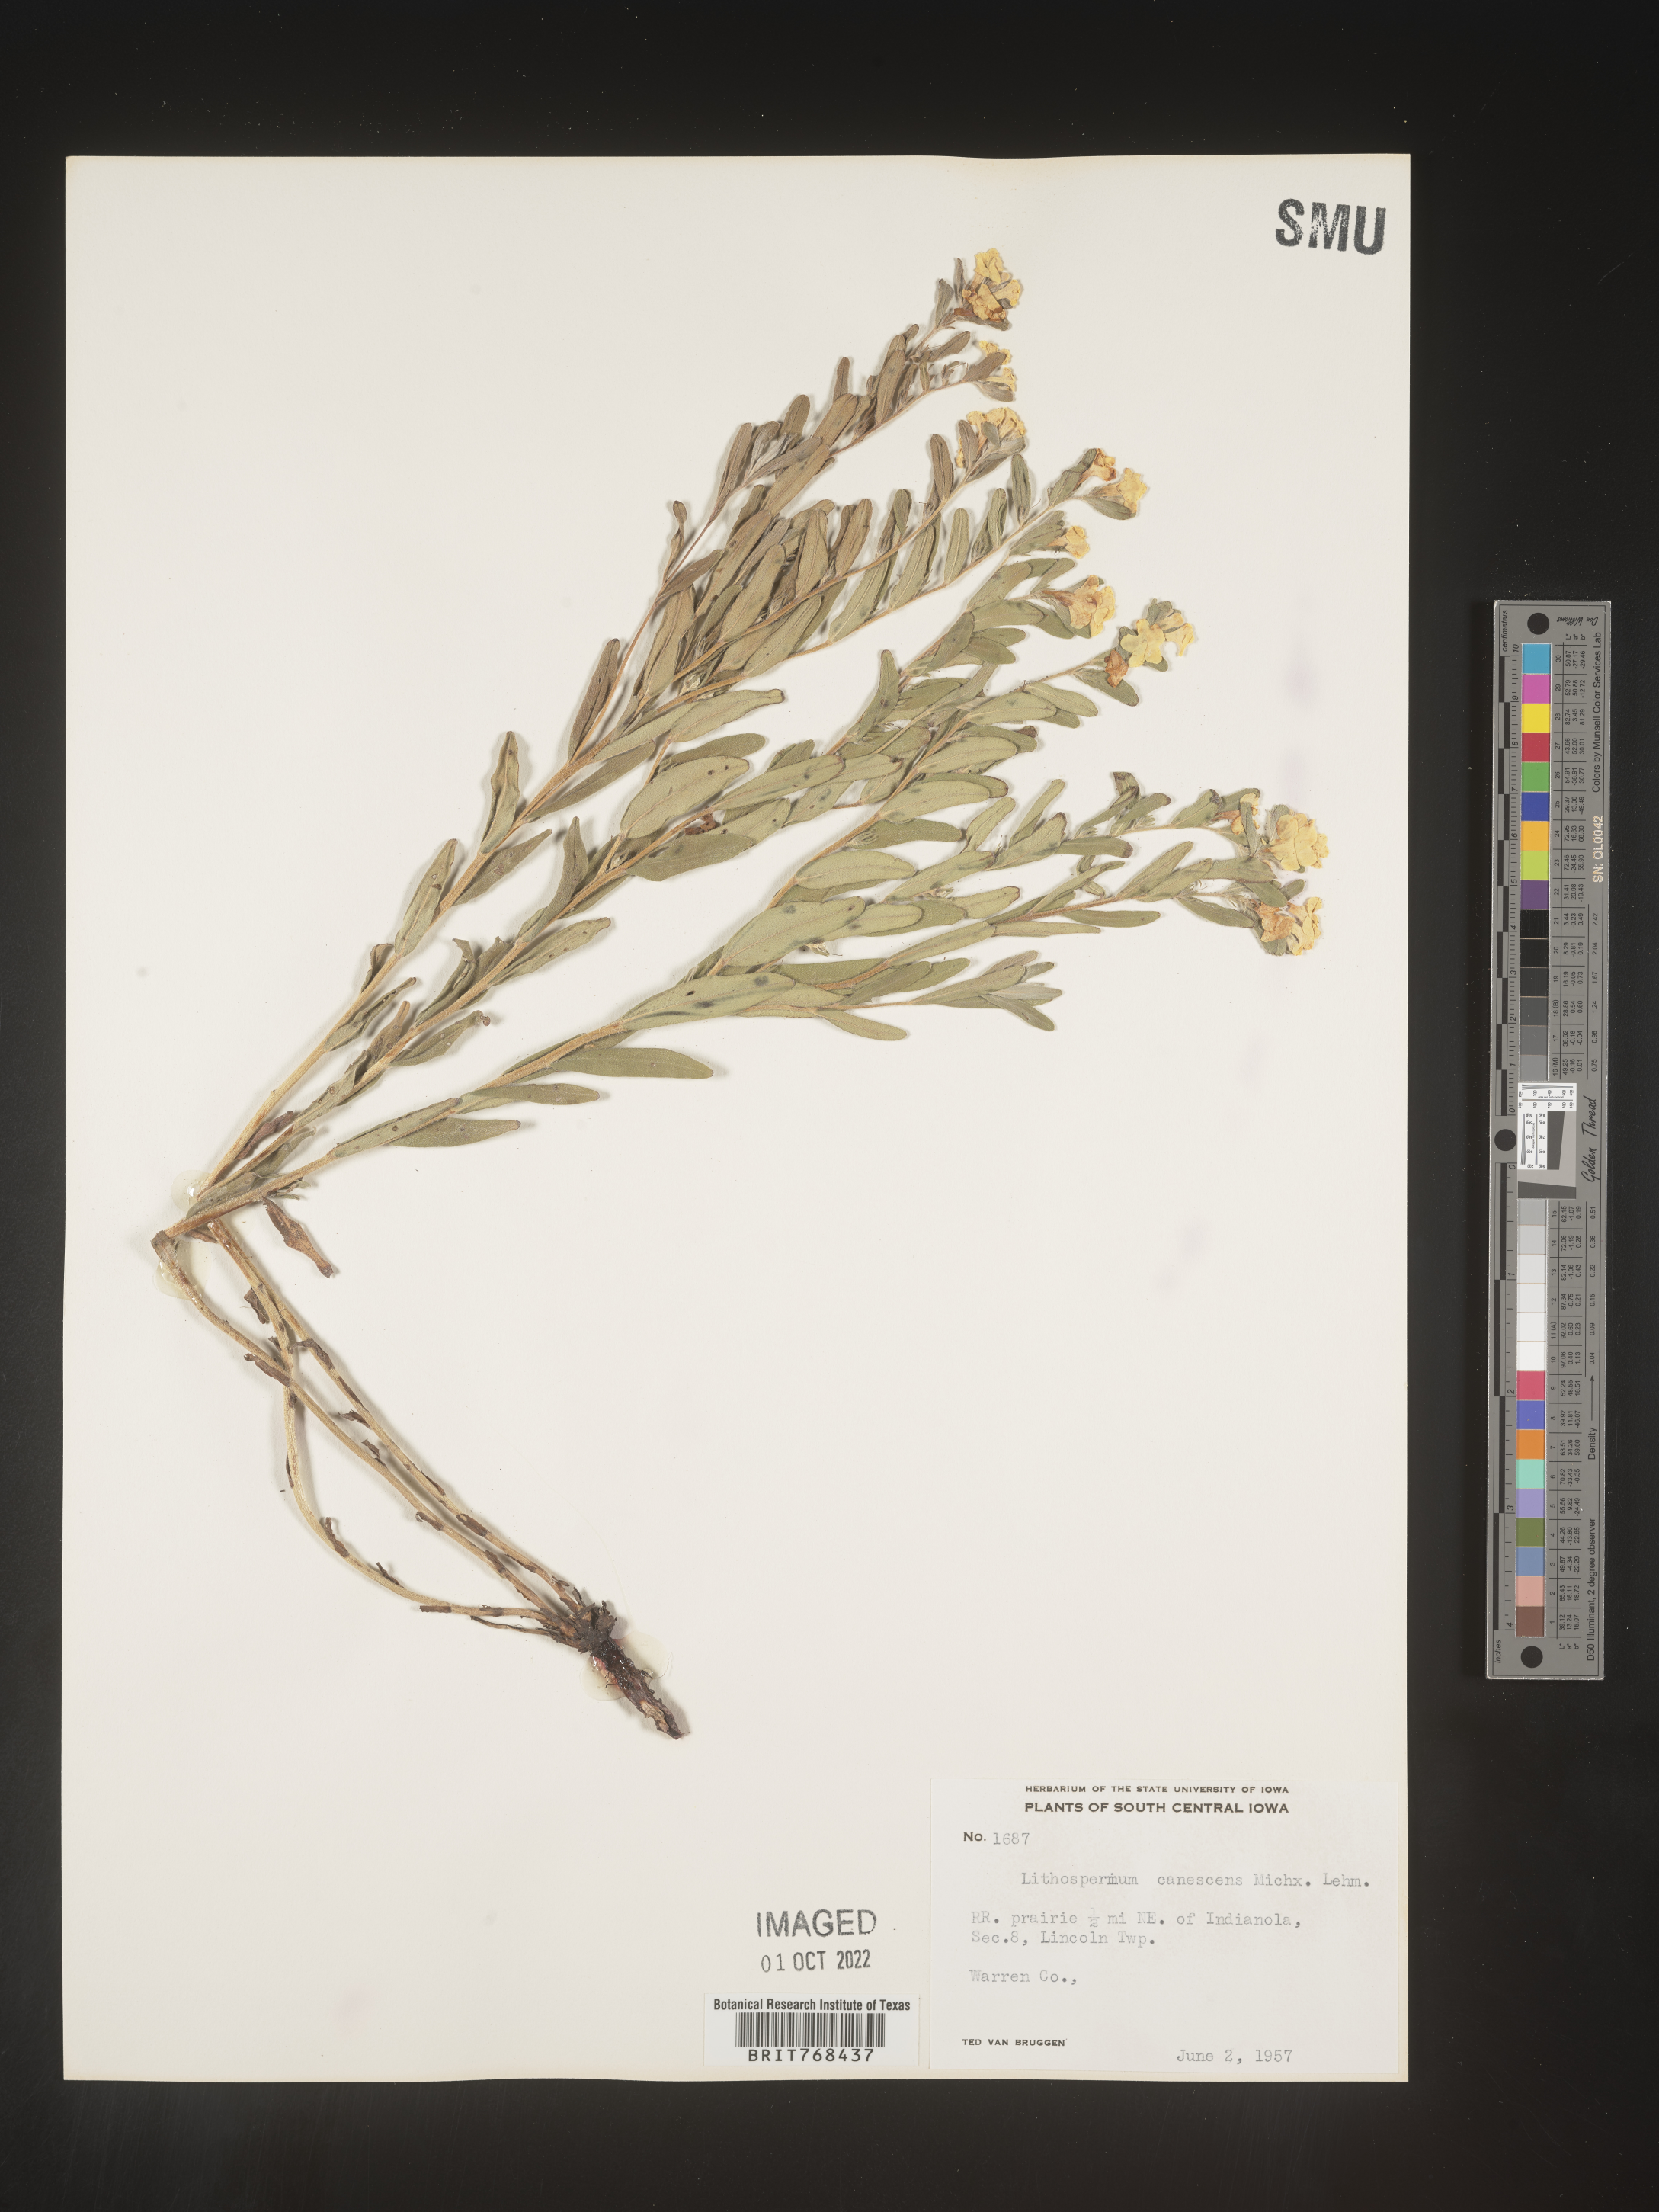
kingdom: Plantae
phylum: Tracheophyta
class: Magnoliopsida
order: Boraginales
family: Boraginaceae
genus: Lithospermum
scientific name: Lithospermum canescens
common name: Hoary puccoon
